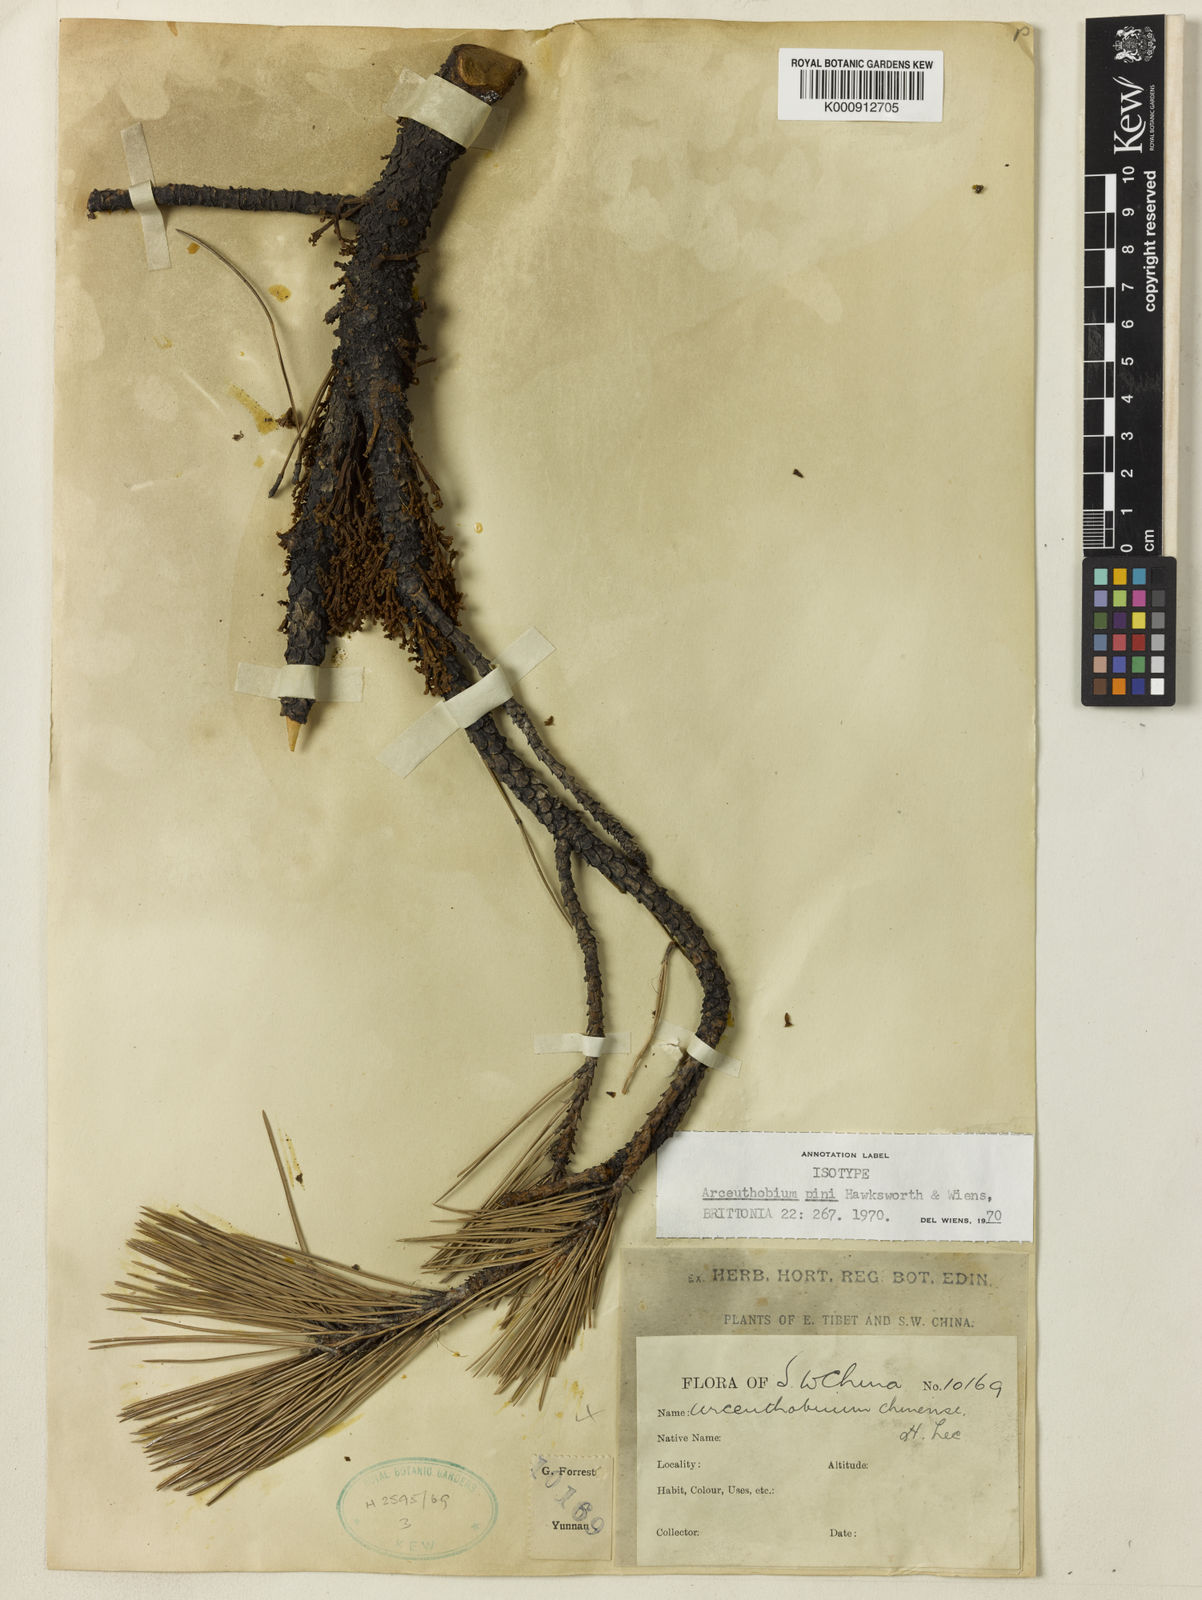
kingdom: Plantae
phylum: Tracheophyta
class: Magnoliopsida
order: Santalales
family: Viscaceae
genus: Arceuthobium
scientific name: Arceuthobium pini
